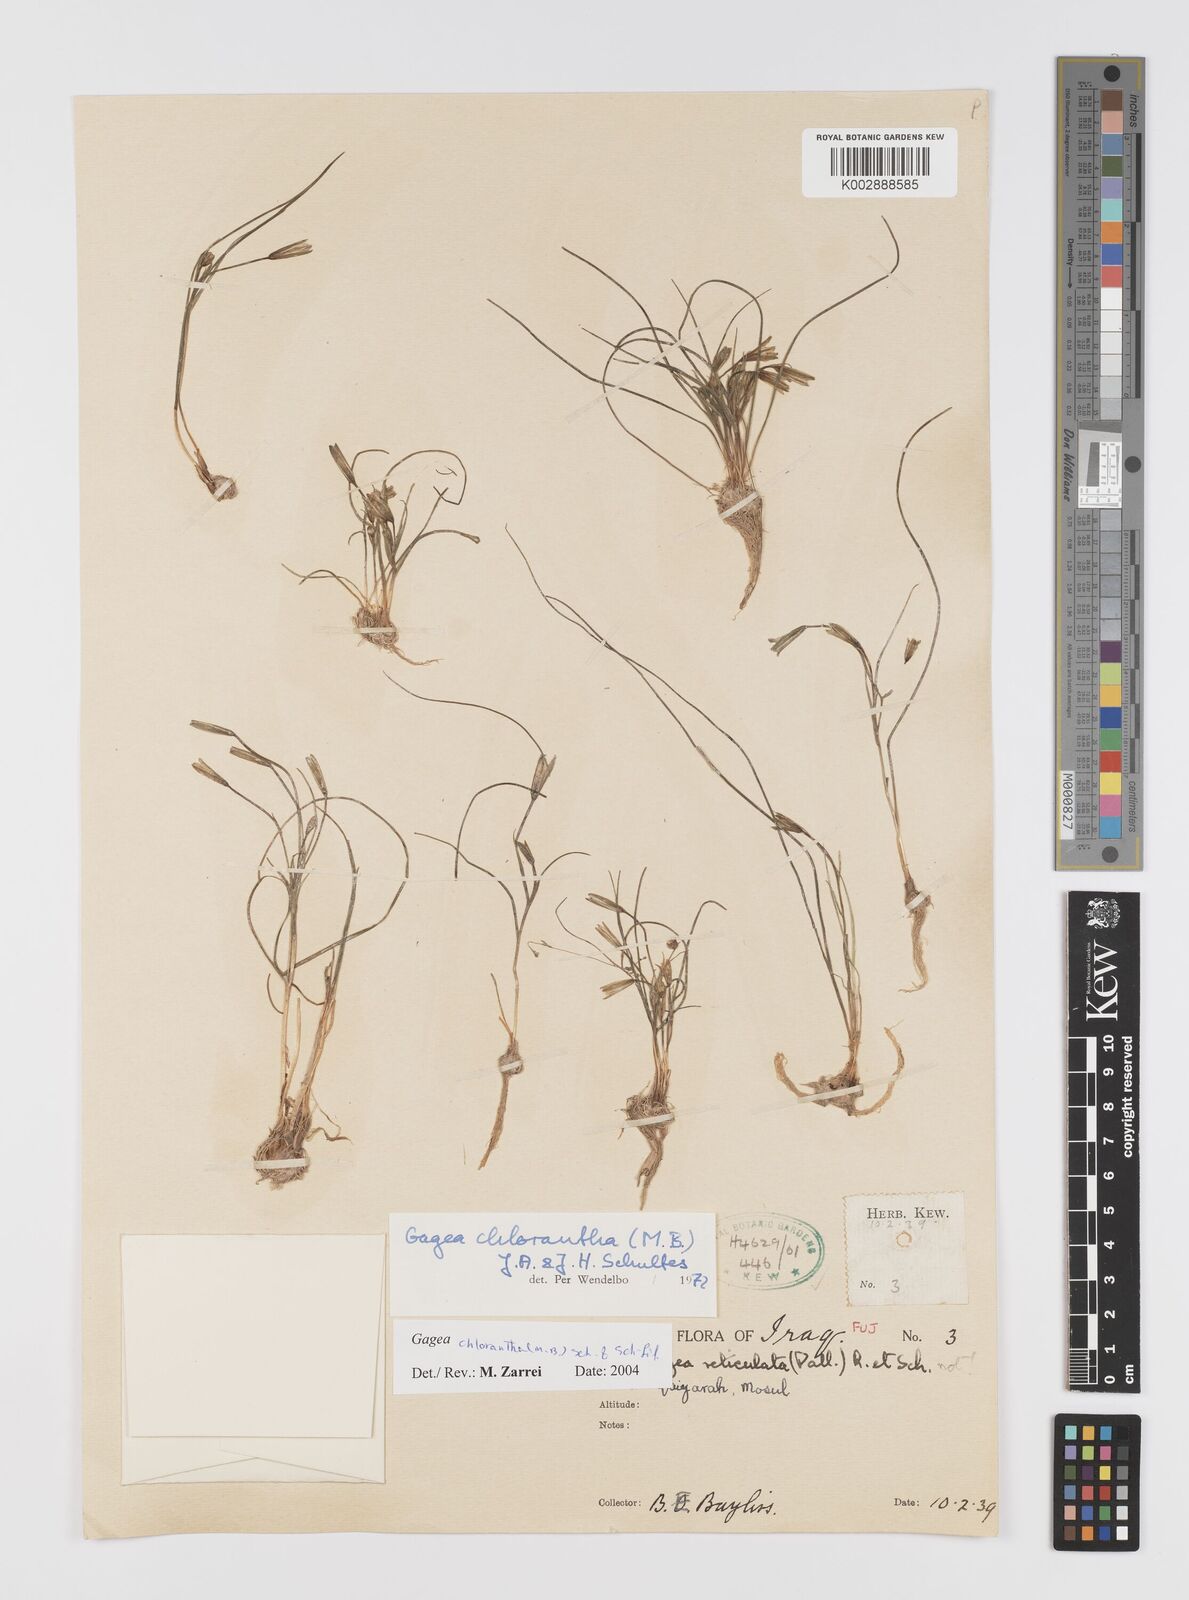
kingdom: Plantae
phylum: Tracheophyta
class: Liliopsida
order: Liliales
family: Liliaceae
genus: Gagea
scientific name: Gagea chlorantha
